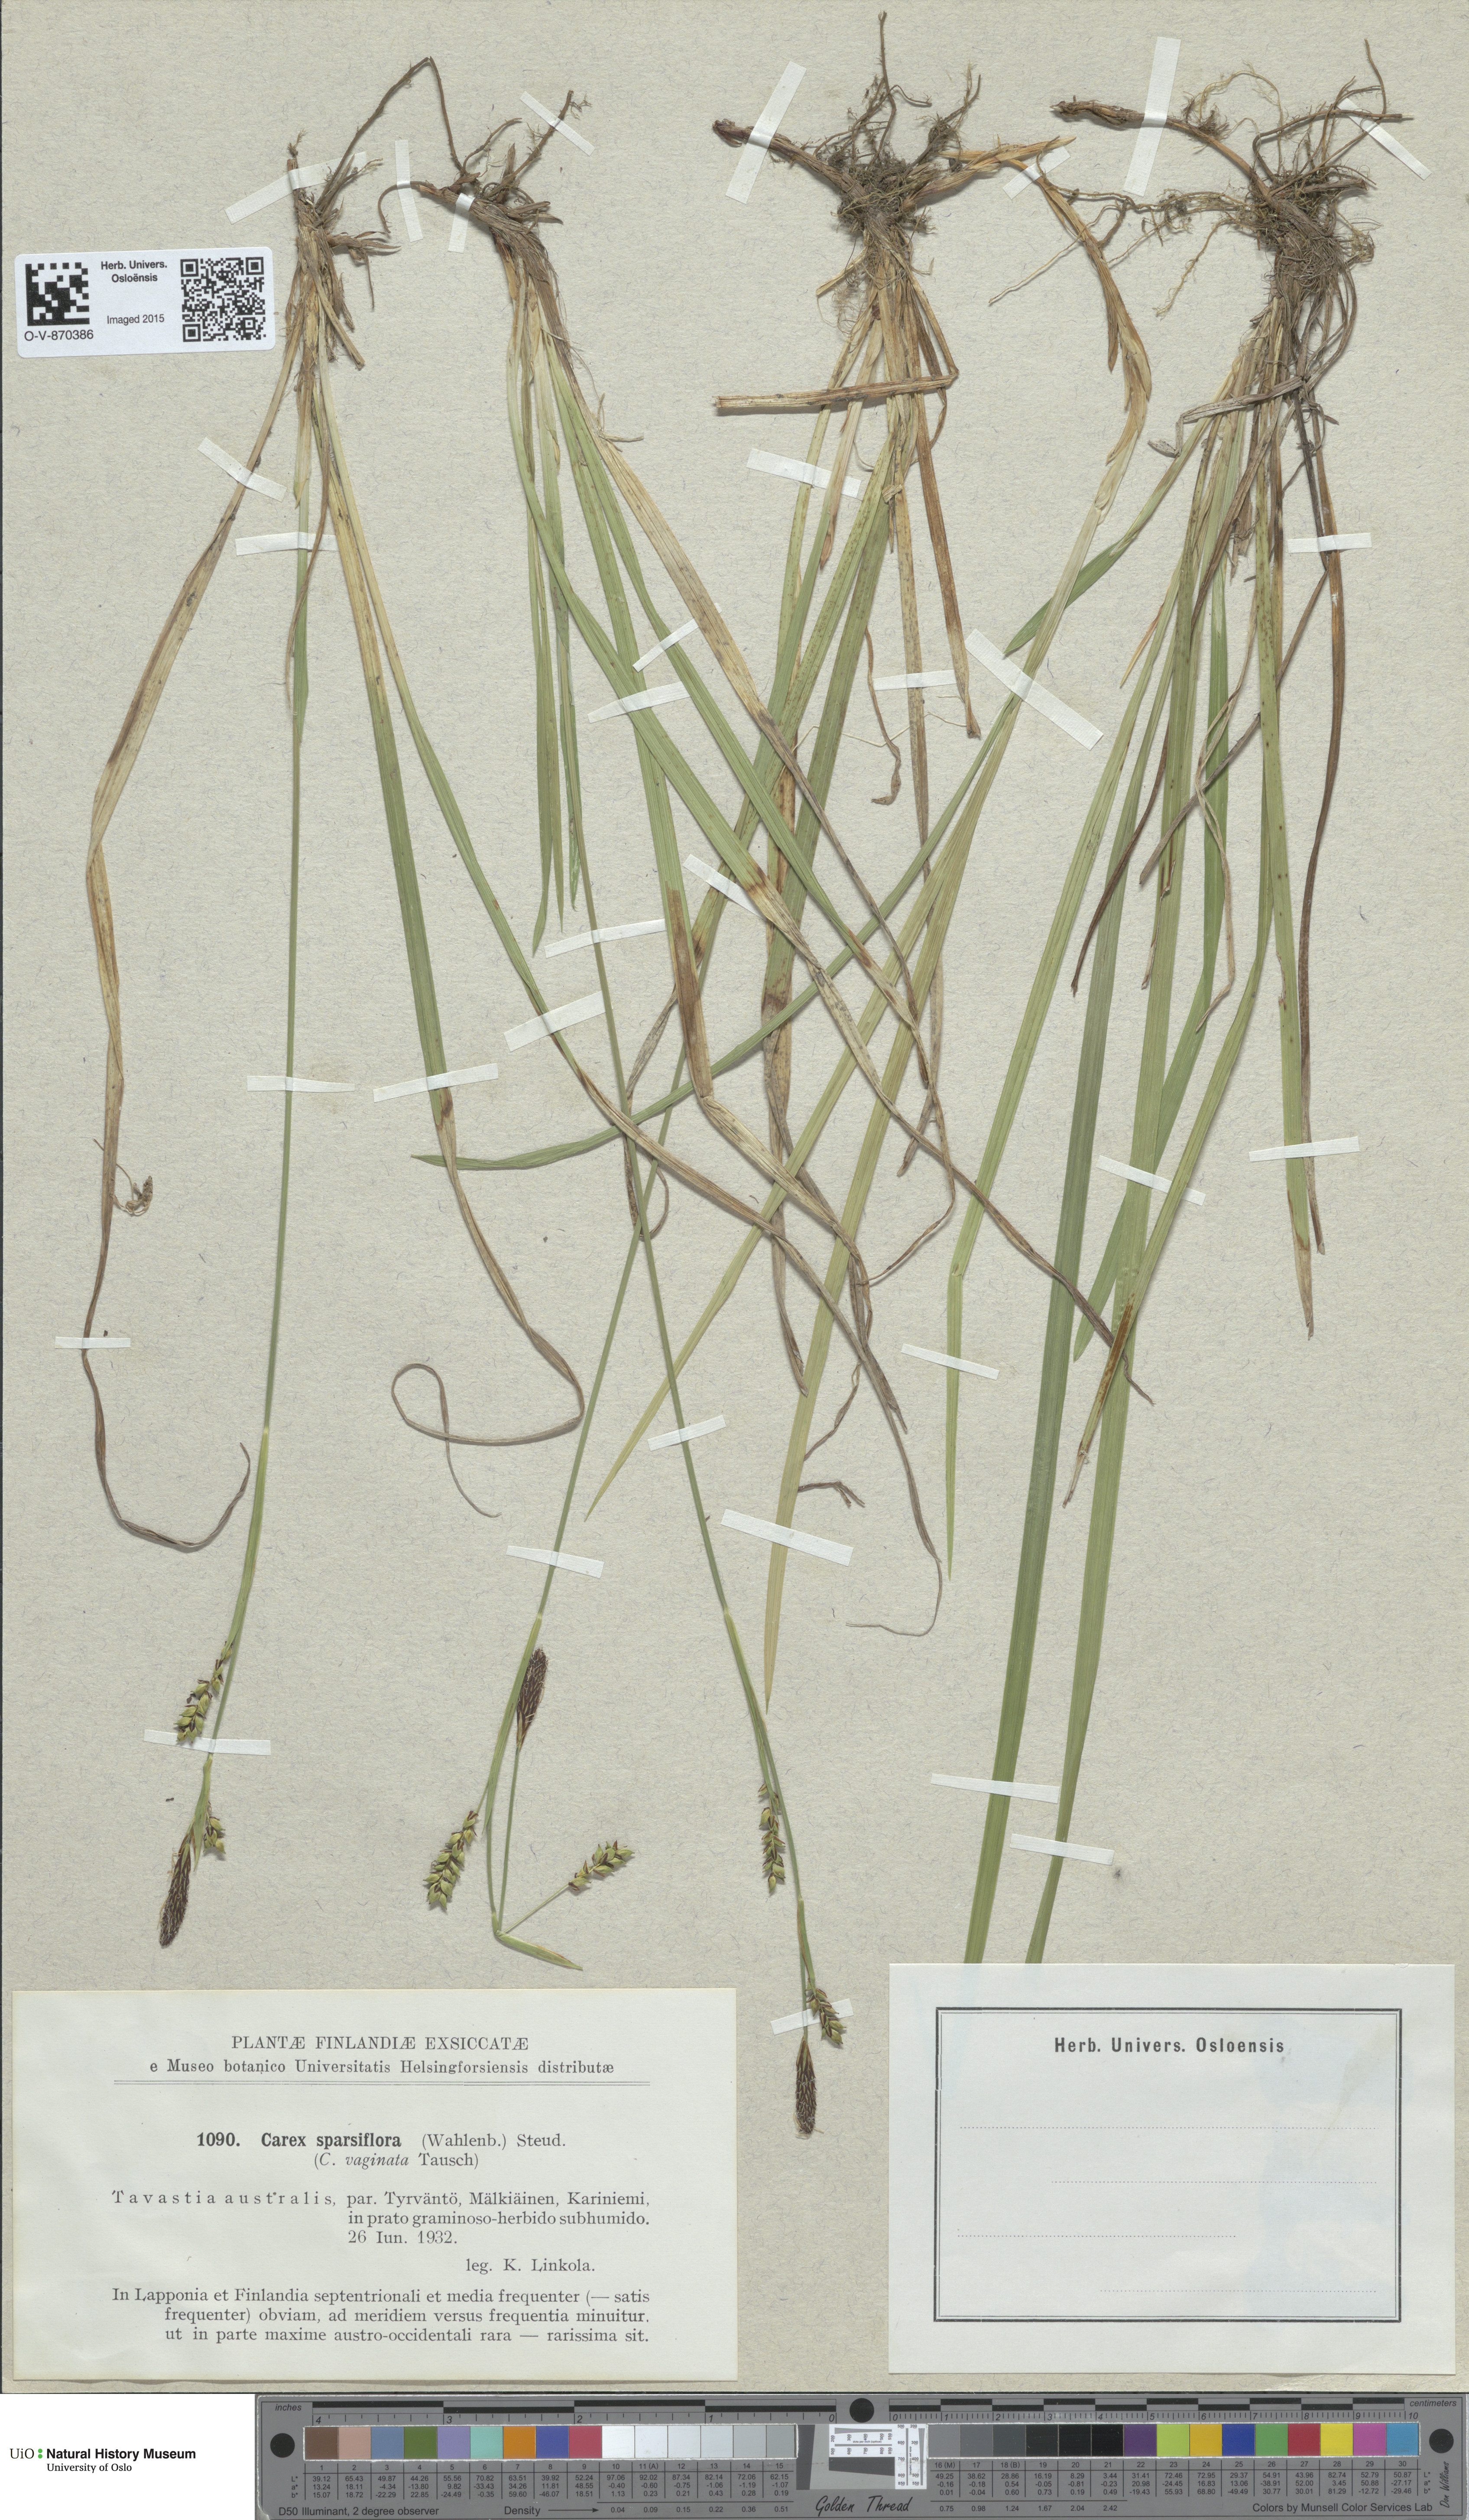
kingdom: Plantae
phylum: Tracheophyta
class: Liliopsida
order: Poales
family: Cyperaceae
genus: Carex
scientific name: Carex vaginata
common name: Sheathed sedge
